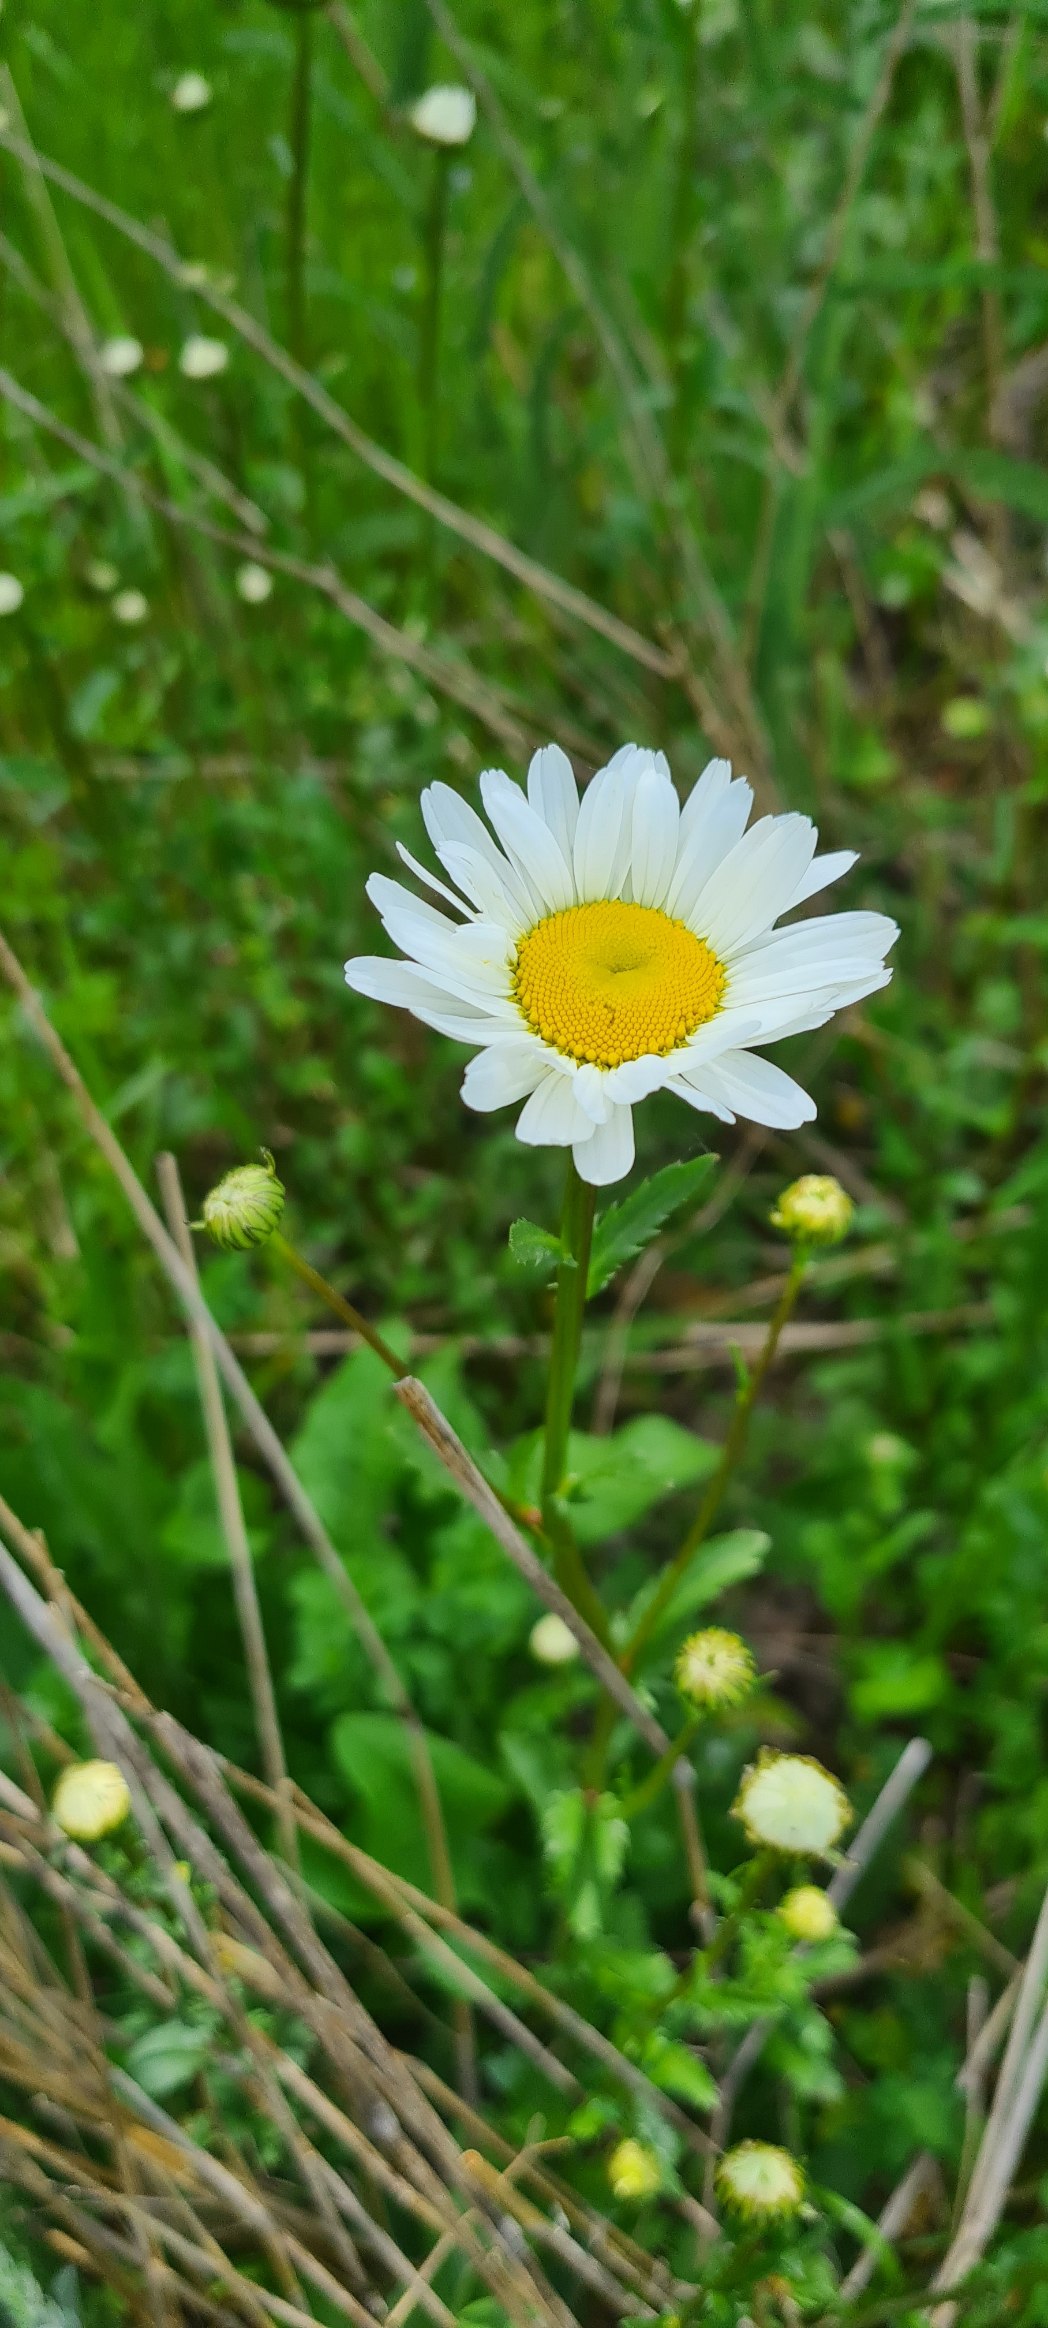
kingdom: Plantae
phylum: Tracheophyta
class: Magnoliopsida
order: Asterales
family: Asteraceae
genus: Leucanthemum
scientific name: Leucanthemum vulgare
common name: Hvid okseøje
